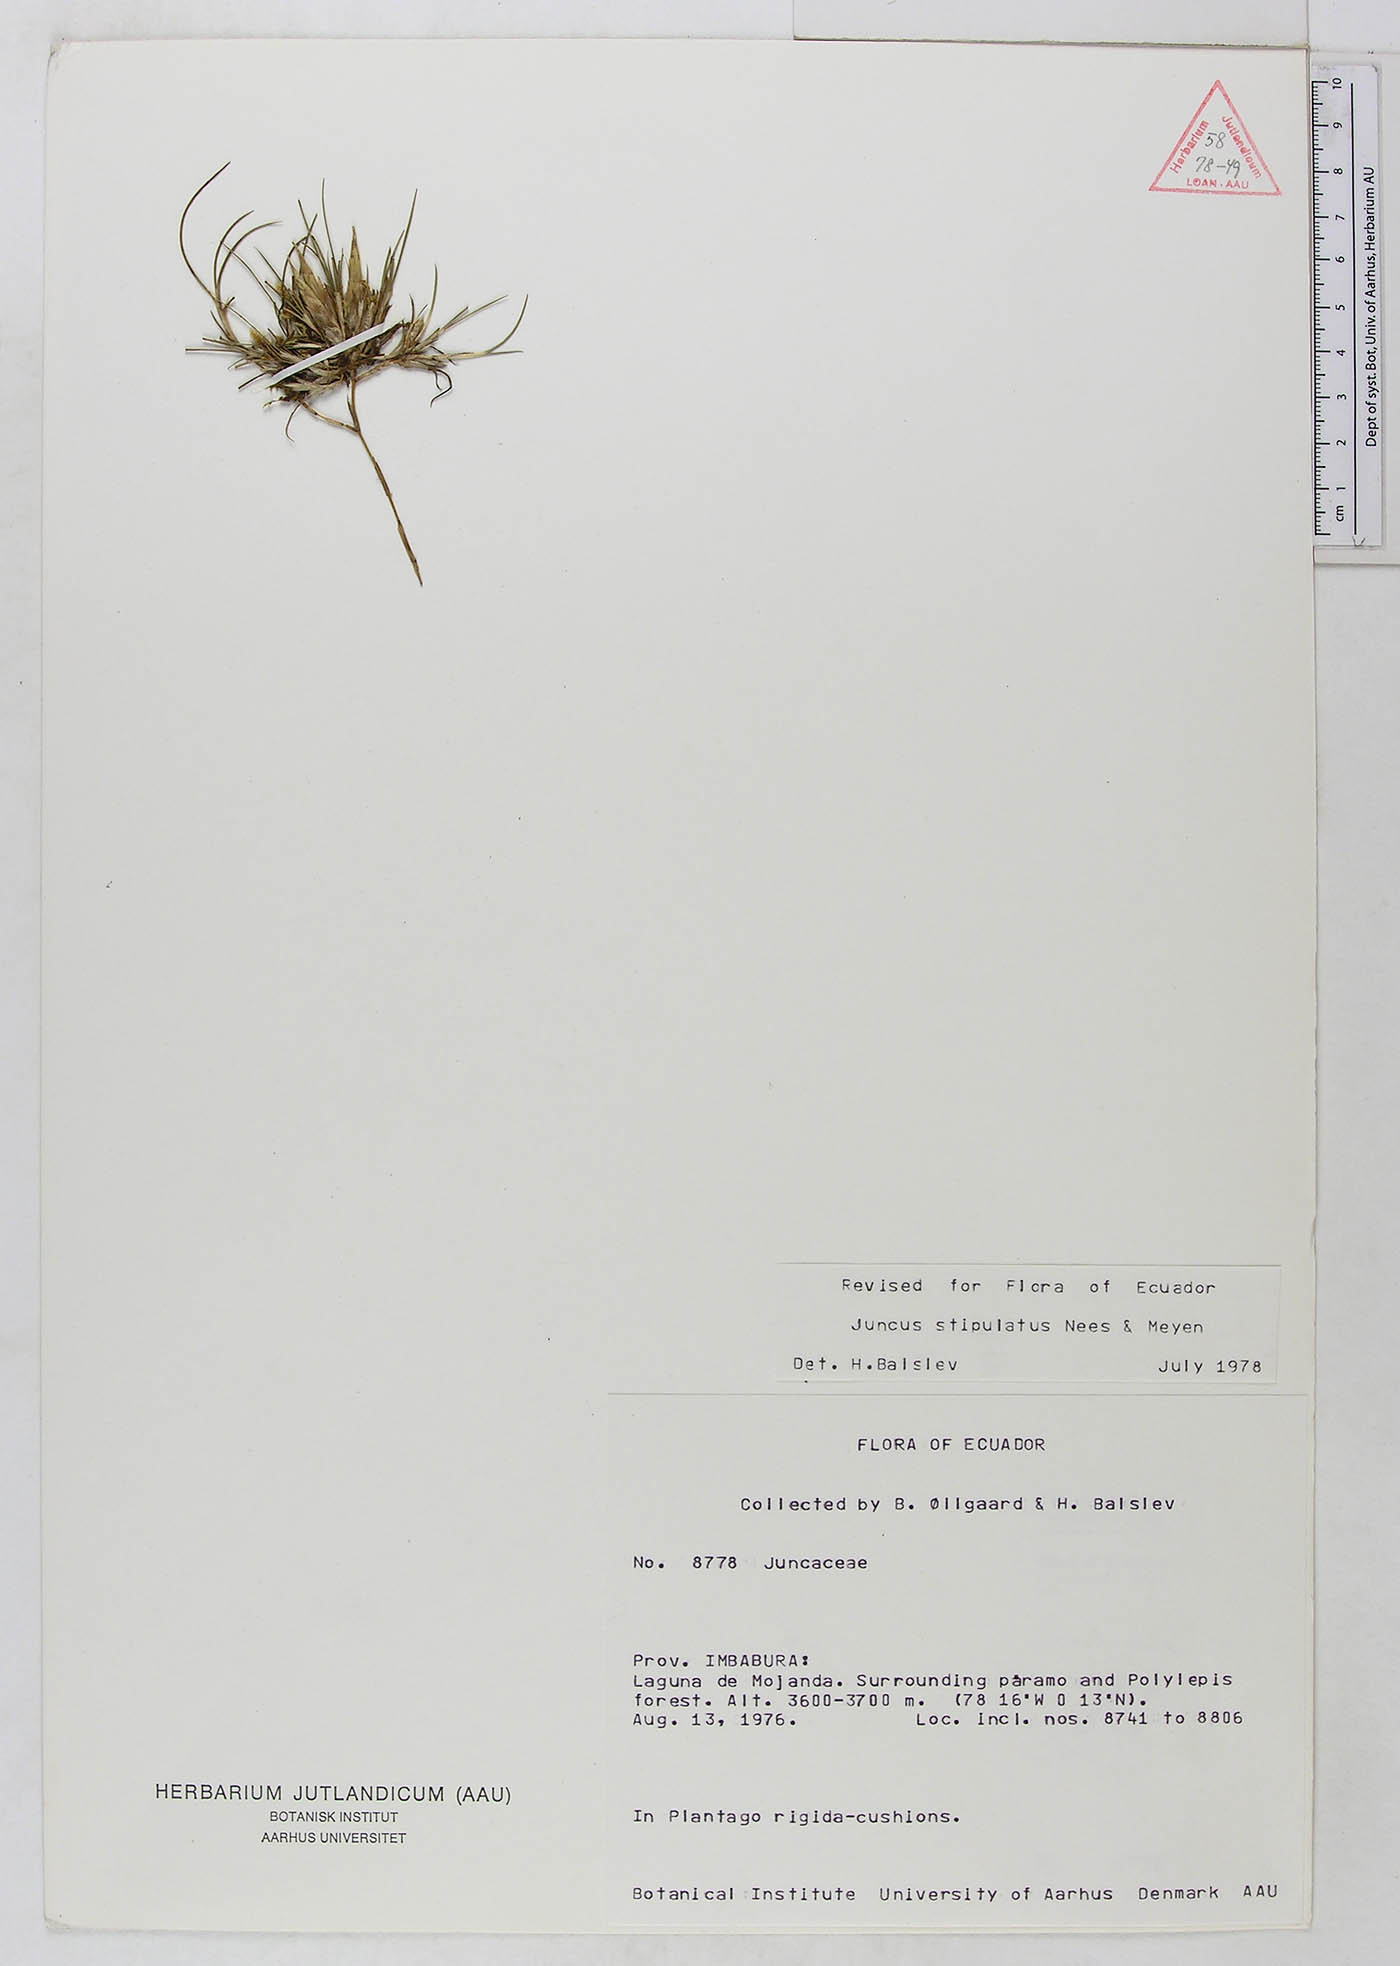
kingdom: Plantae
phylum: Tracheophyta
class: Liliopsida
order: Poales
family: Juncaceae
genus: Juncus
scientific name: Juncus stipulatus
